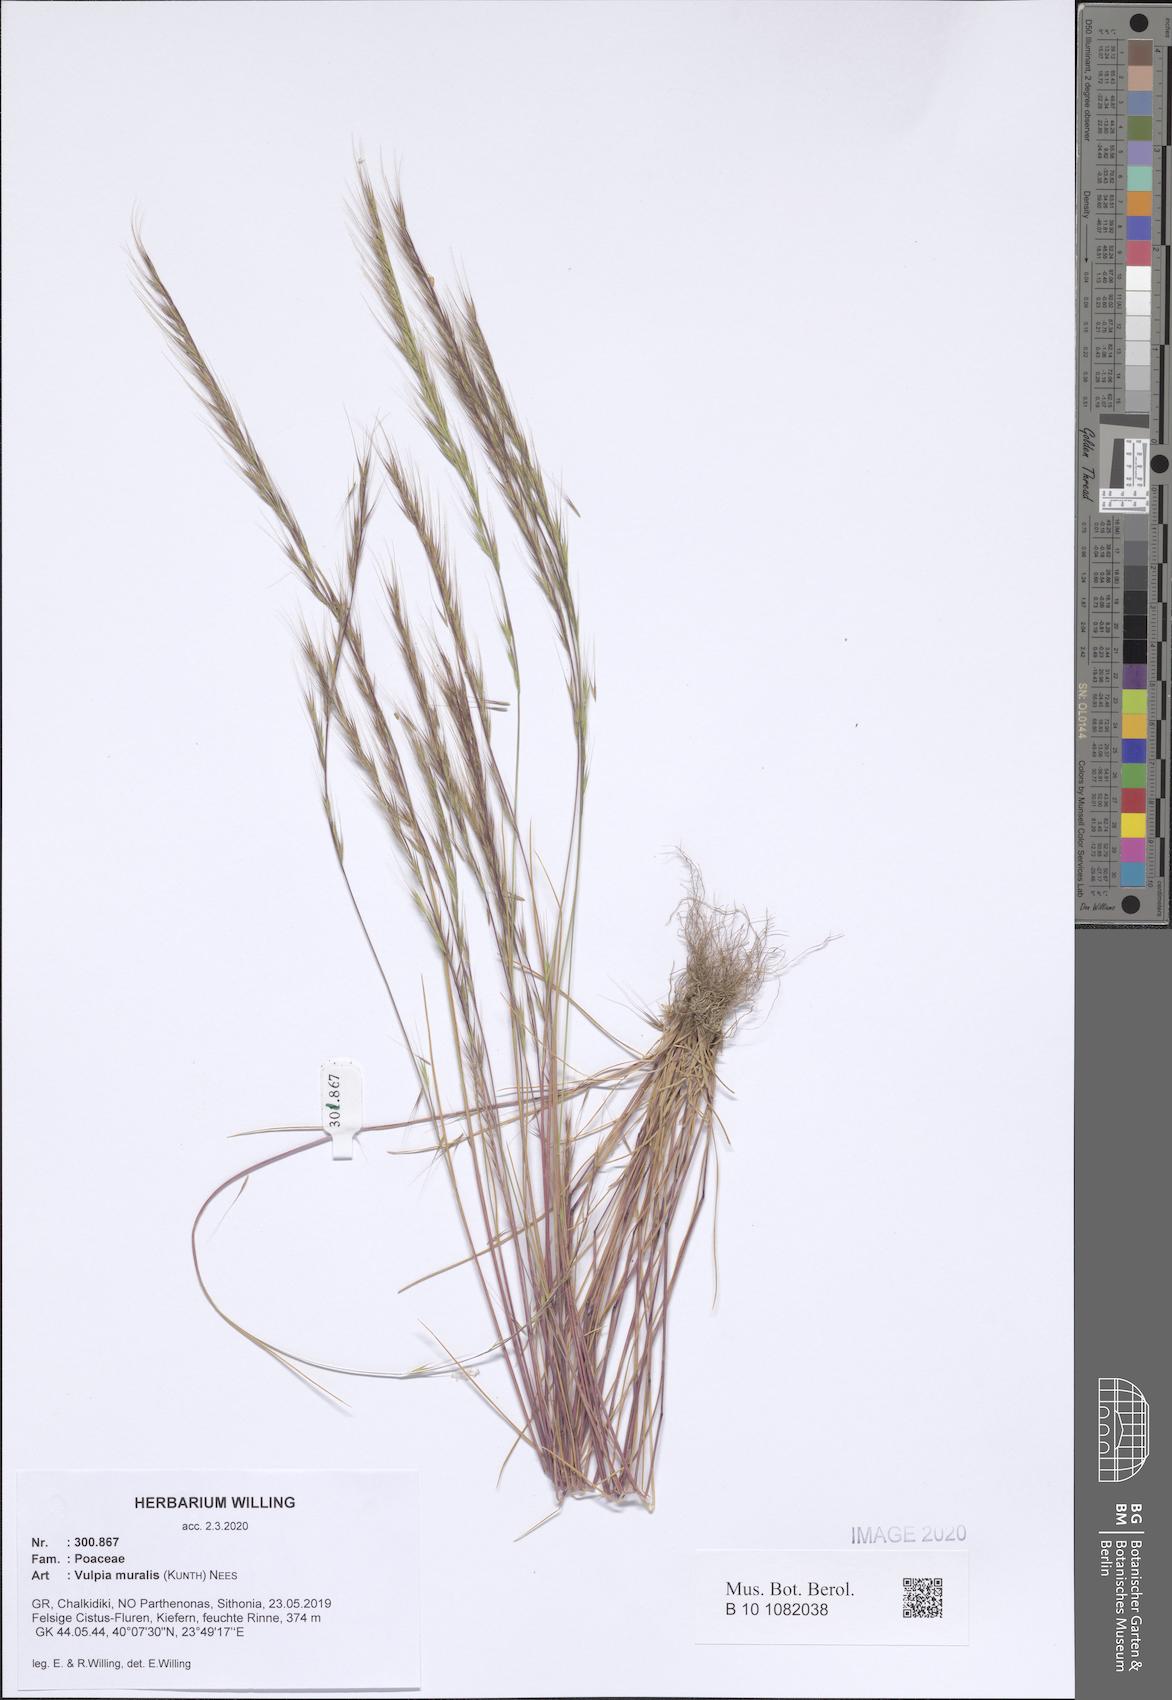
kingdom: Plantae
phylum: Tracheophyta
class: Liliopsida
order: Poales
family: Poaceae
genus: Festuca
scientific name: Festuca muralis
